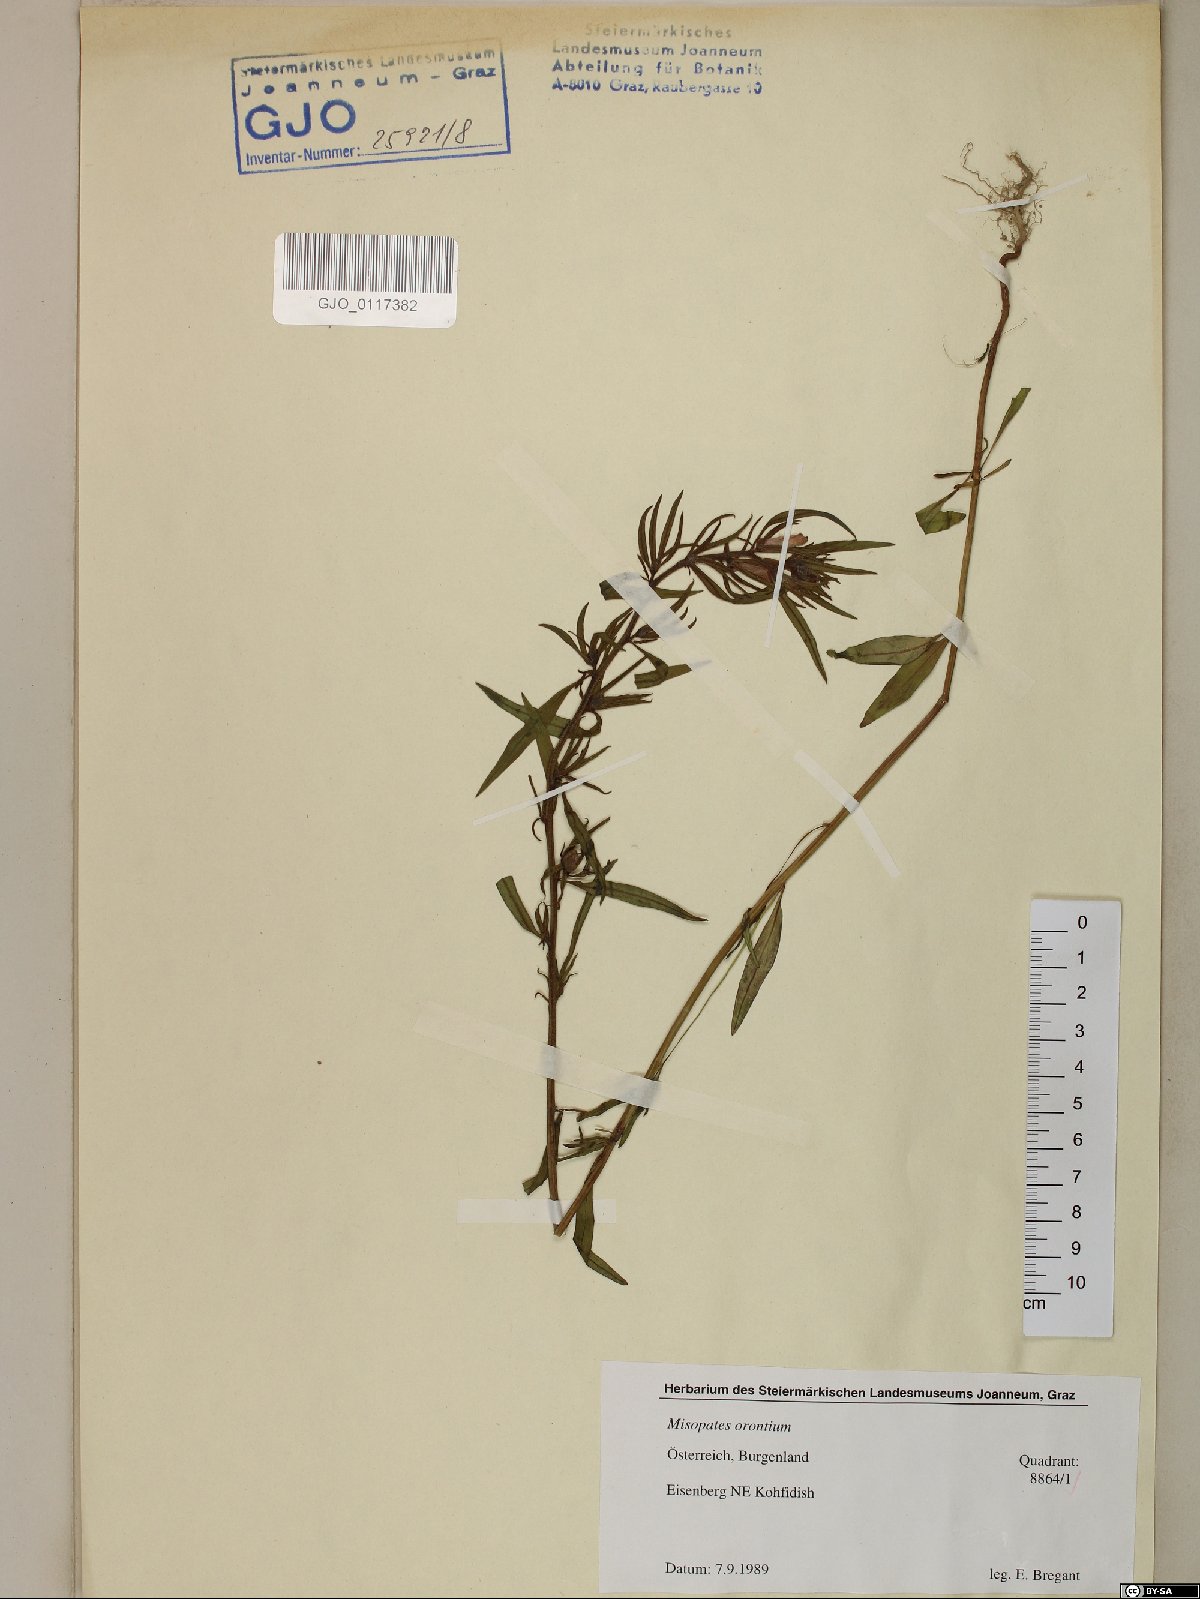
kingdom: Plantae
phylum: Tracheophyta
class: Magnoliopsida
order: Lamiales
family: Plantaginaceae
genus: Misopates
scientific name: Misopates orontium
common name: Weasel's-snout
